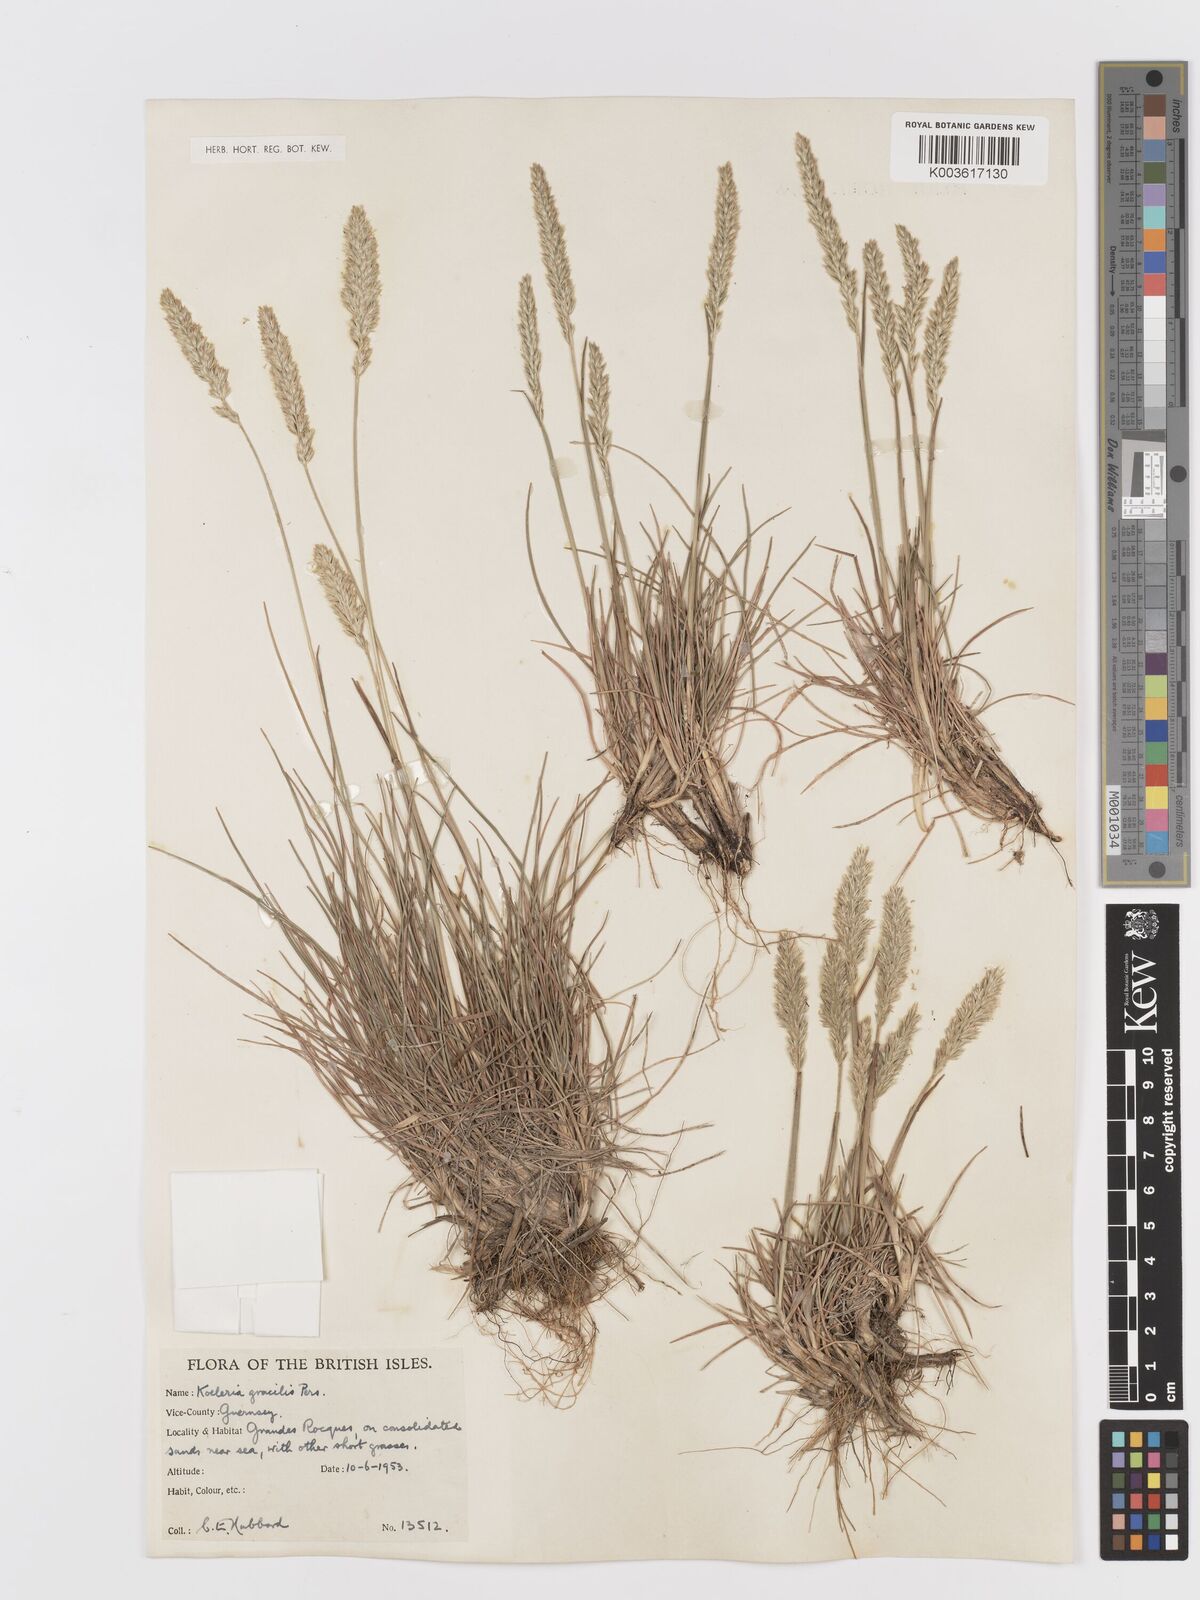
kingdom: Plantae
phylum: Tracheophyta
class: Liliopsida
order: Poales
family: Poaceae
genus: Koeleria
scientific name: Koeleria macrantha
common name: Crested hair-grass
